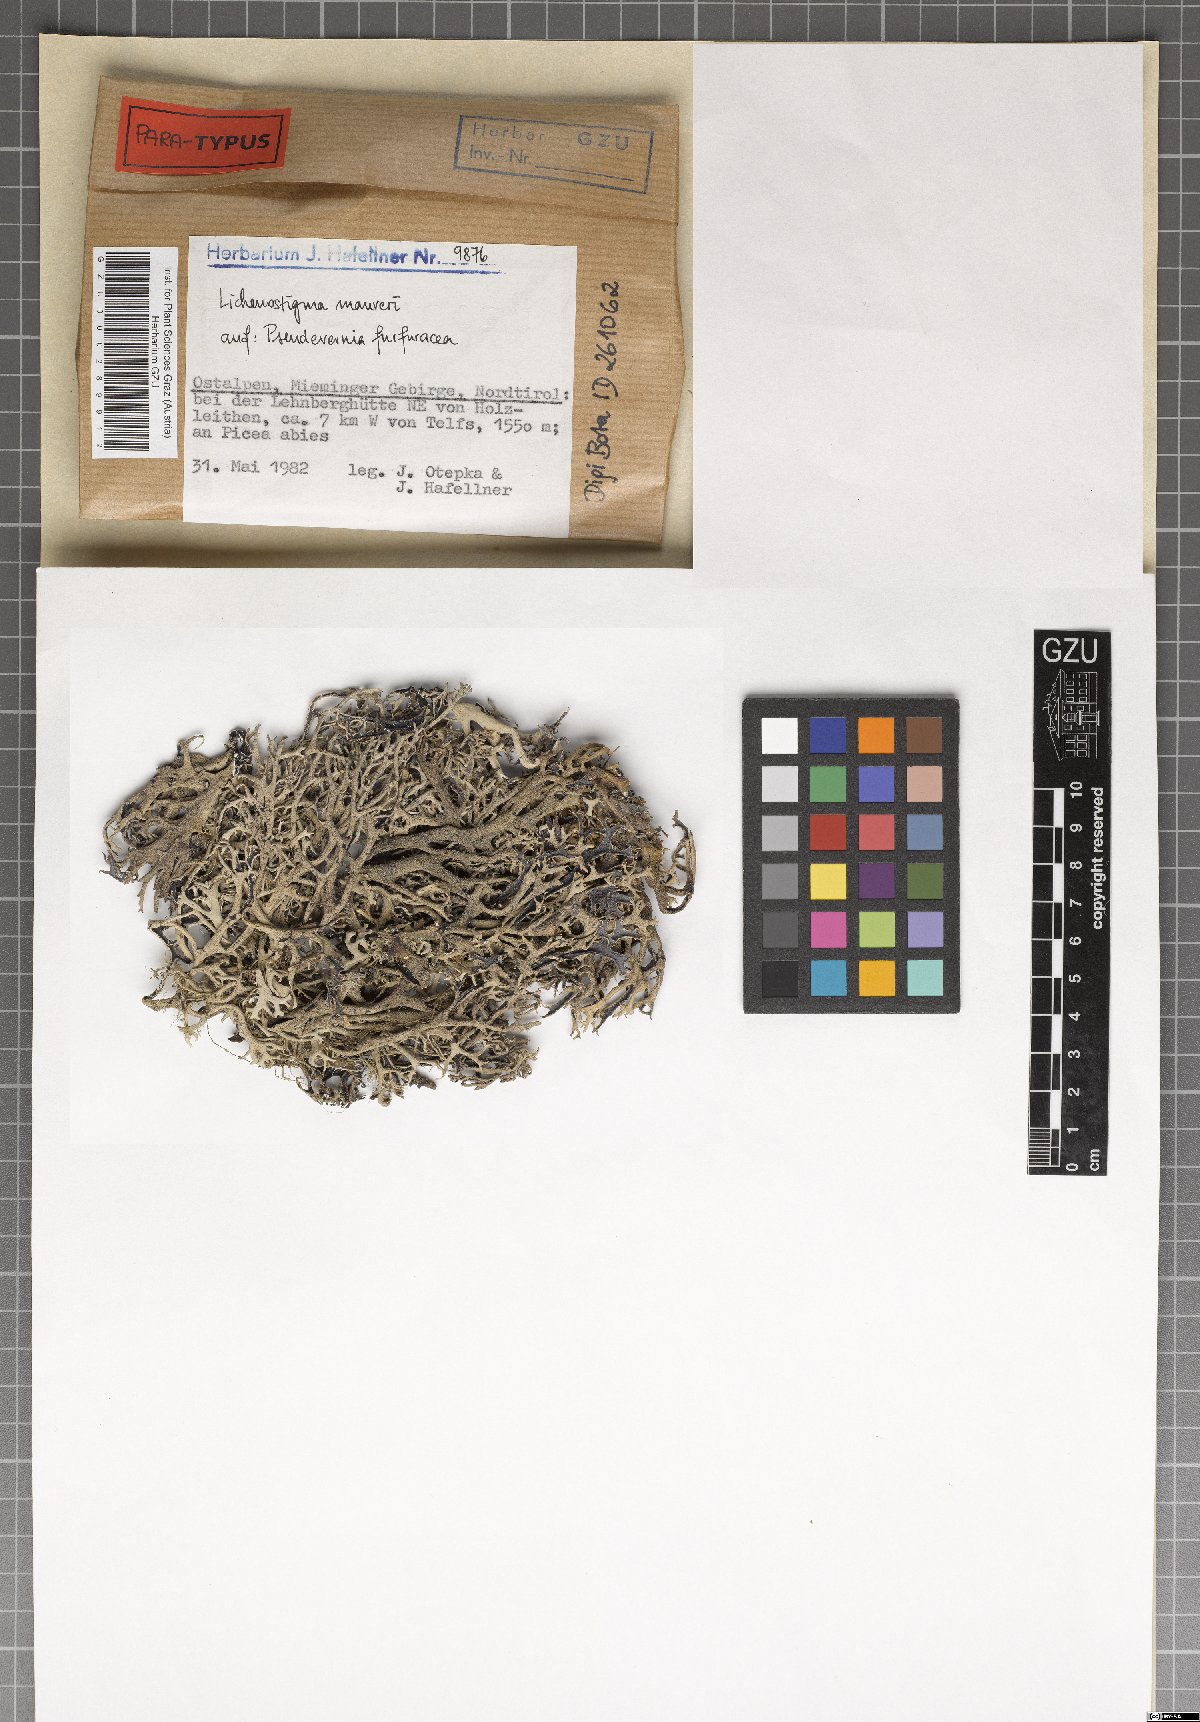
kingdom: Fungi
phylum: Ascomycota
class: Arthoniomycetes
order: Lichenostigmatales
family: Phaeococcomycetaceae
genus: Lichenostigma
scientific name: Lichenostigma maureri
